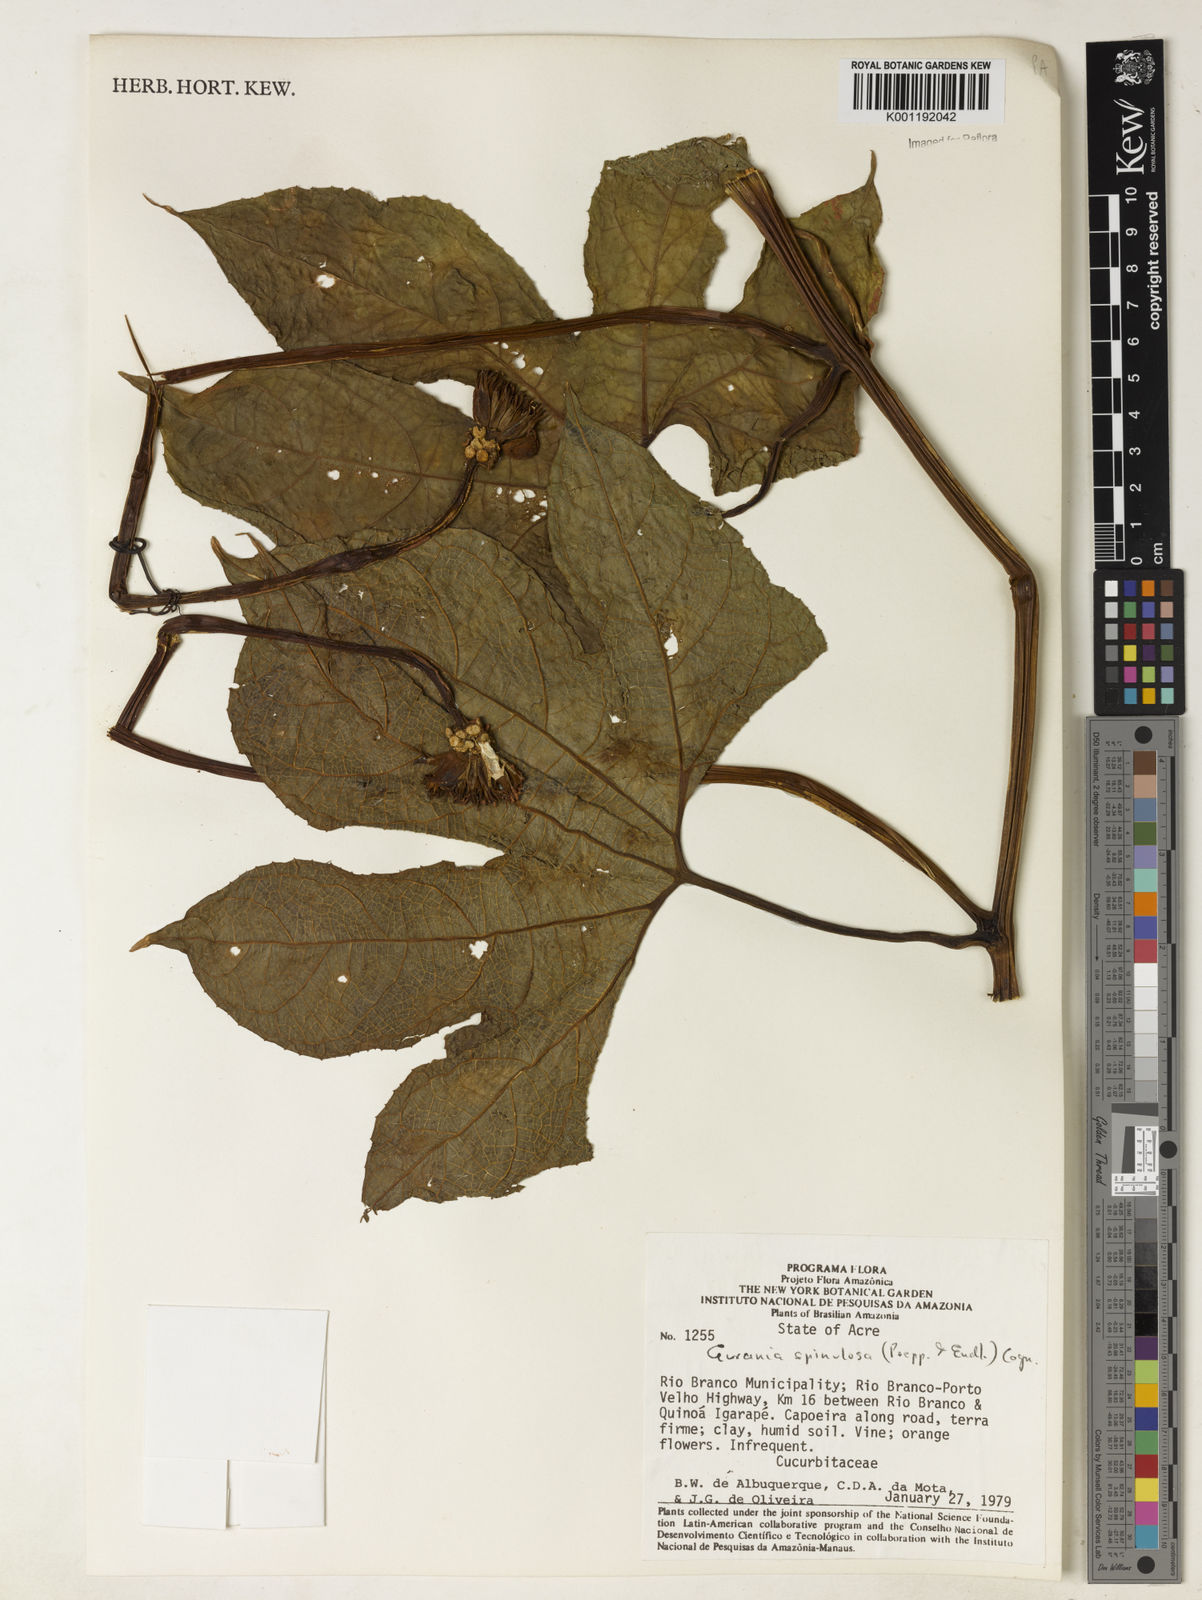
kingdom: Plantae
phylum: Tracheophyta
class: Magnoliopsida
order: Cucurbitales
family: Cucurbitaceae
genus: Gurania
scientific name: Gurania lobata
